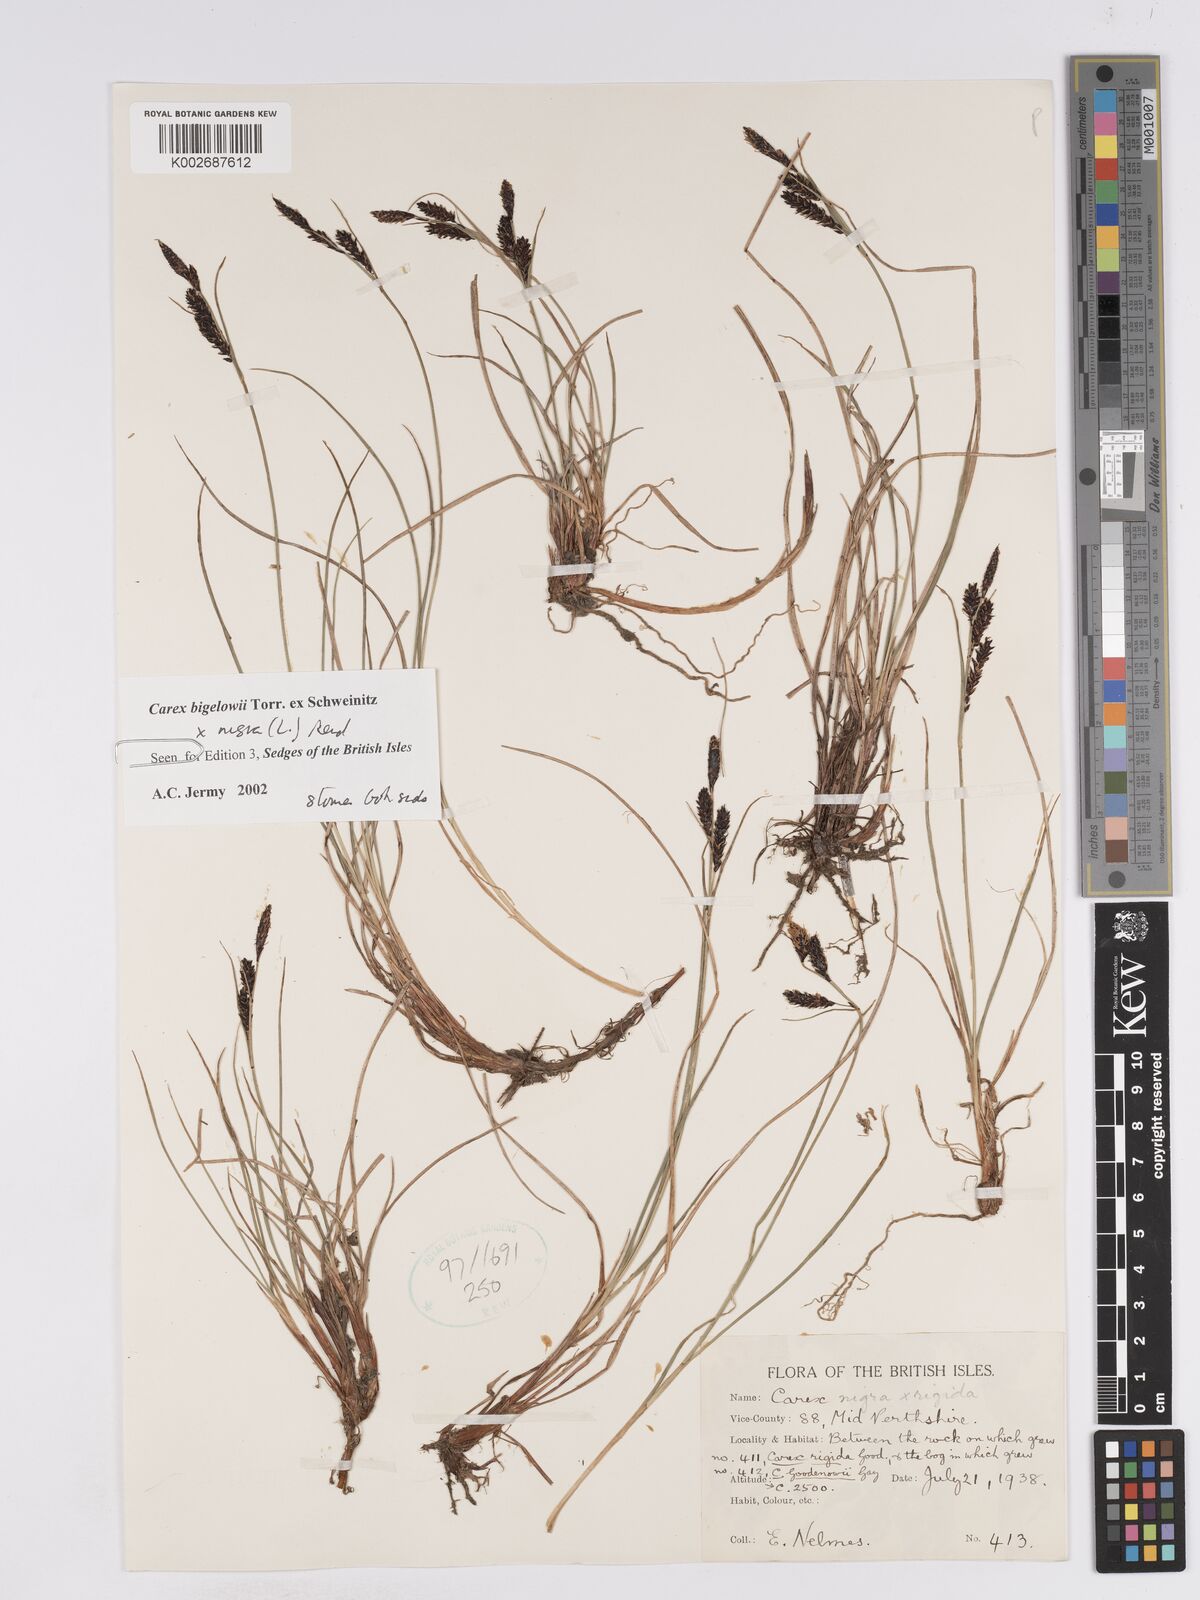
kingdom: Plantae
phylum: Tracheophyta
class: Liliopsida
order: Poales
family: Cyperaceae
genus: Carex
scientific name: Carex nigra
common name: Common sedge
